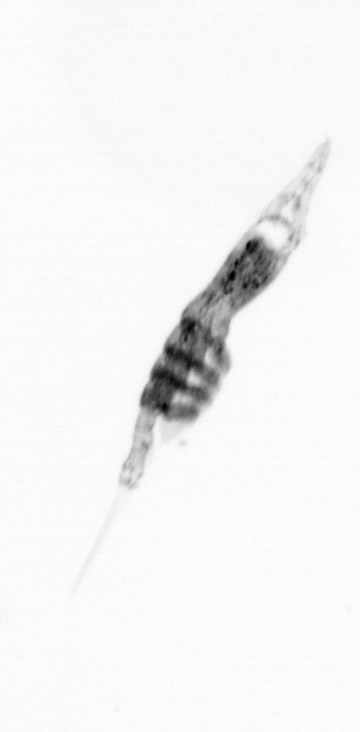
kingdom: Animalia
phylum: Arthropoda
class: Copepoda
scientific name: Copepoda
